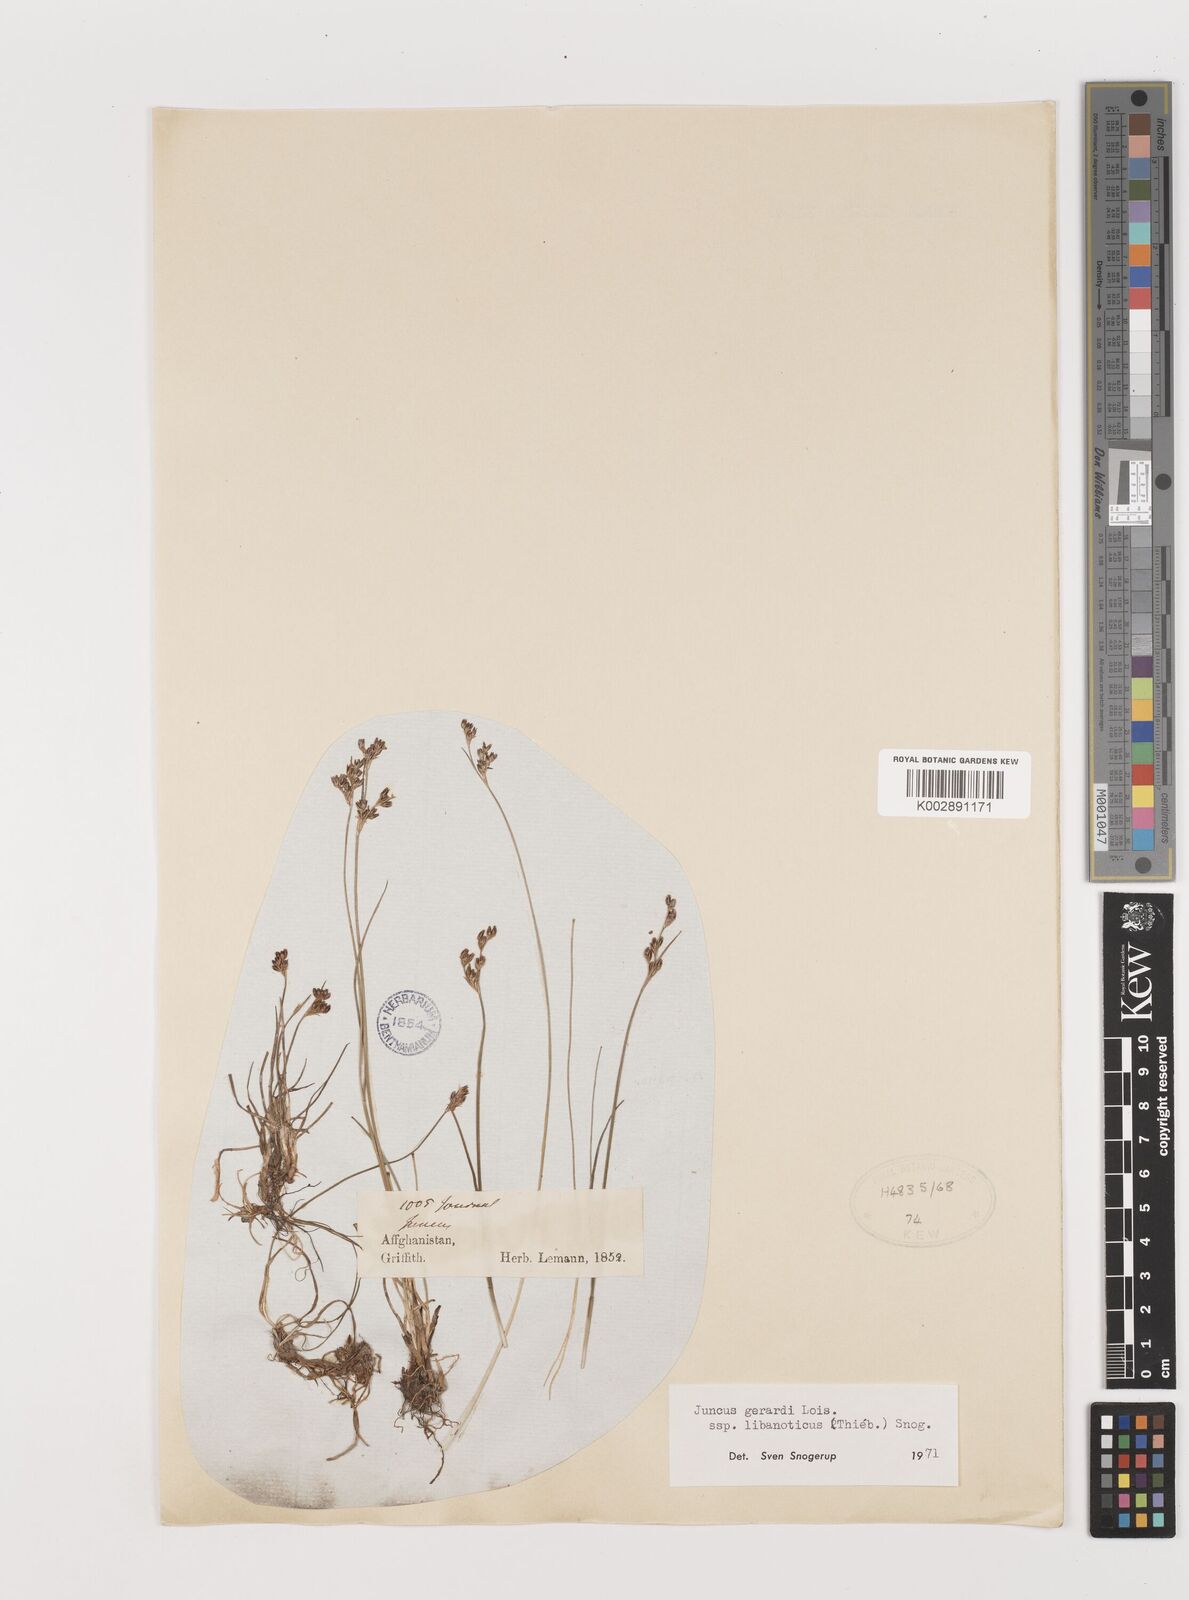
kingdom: Plantae
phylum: Tracheophyta
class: Liliopsida
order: Poales
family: Juncaceae
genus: Juncus
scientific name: Juncus persicus
